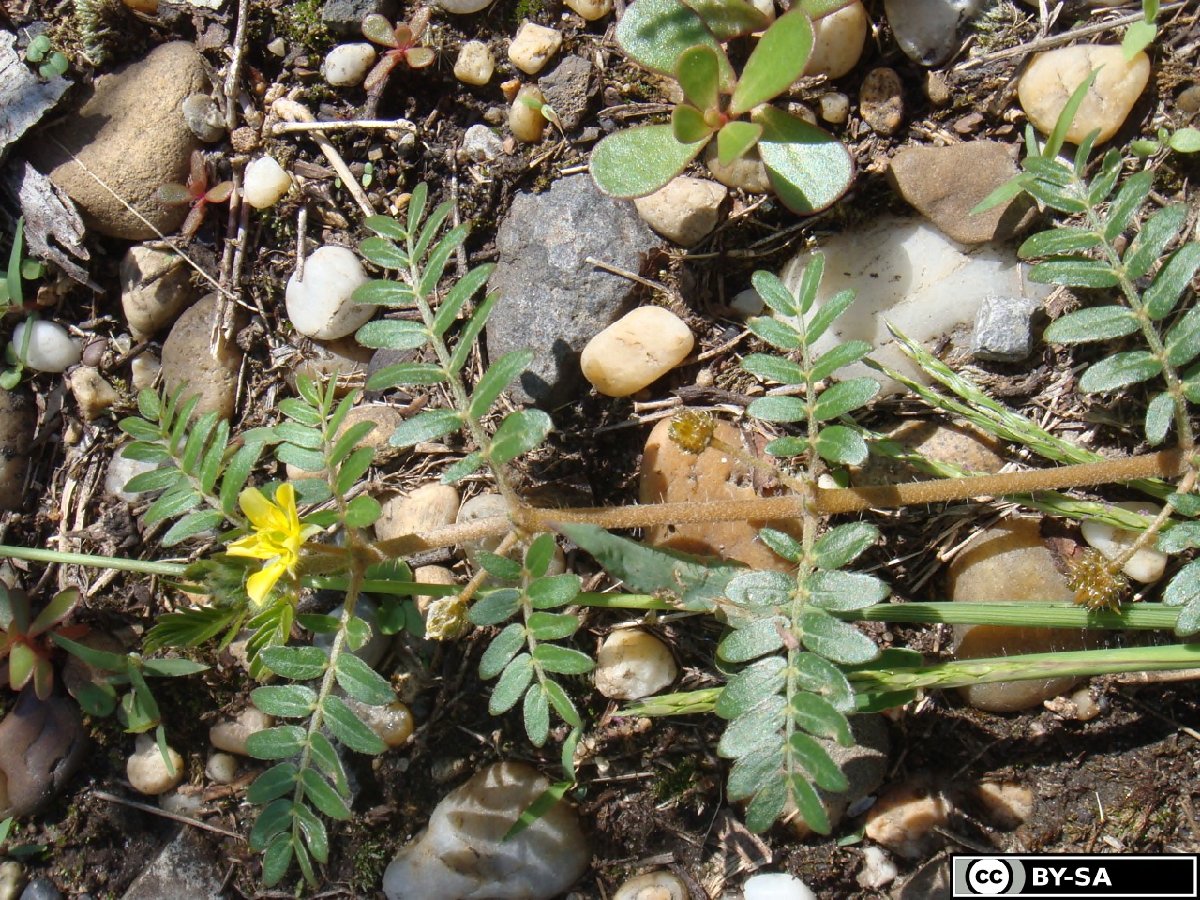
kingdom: Plantae
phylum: Tracheophyta
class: Magnoliopsida
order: Zygophyllales
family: Zygophyllaceae
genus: Tribulus
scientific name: Tribulus terrestris
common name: Puncturevine
